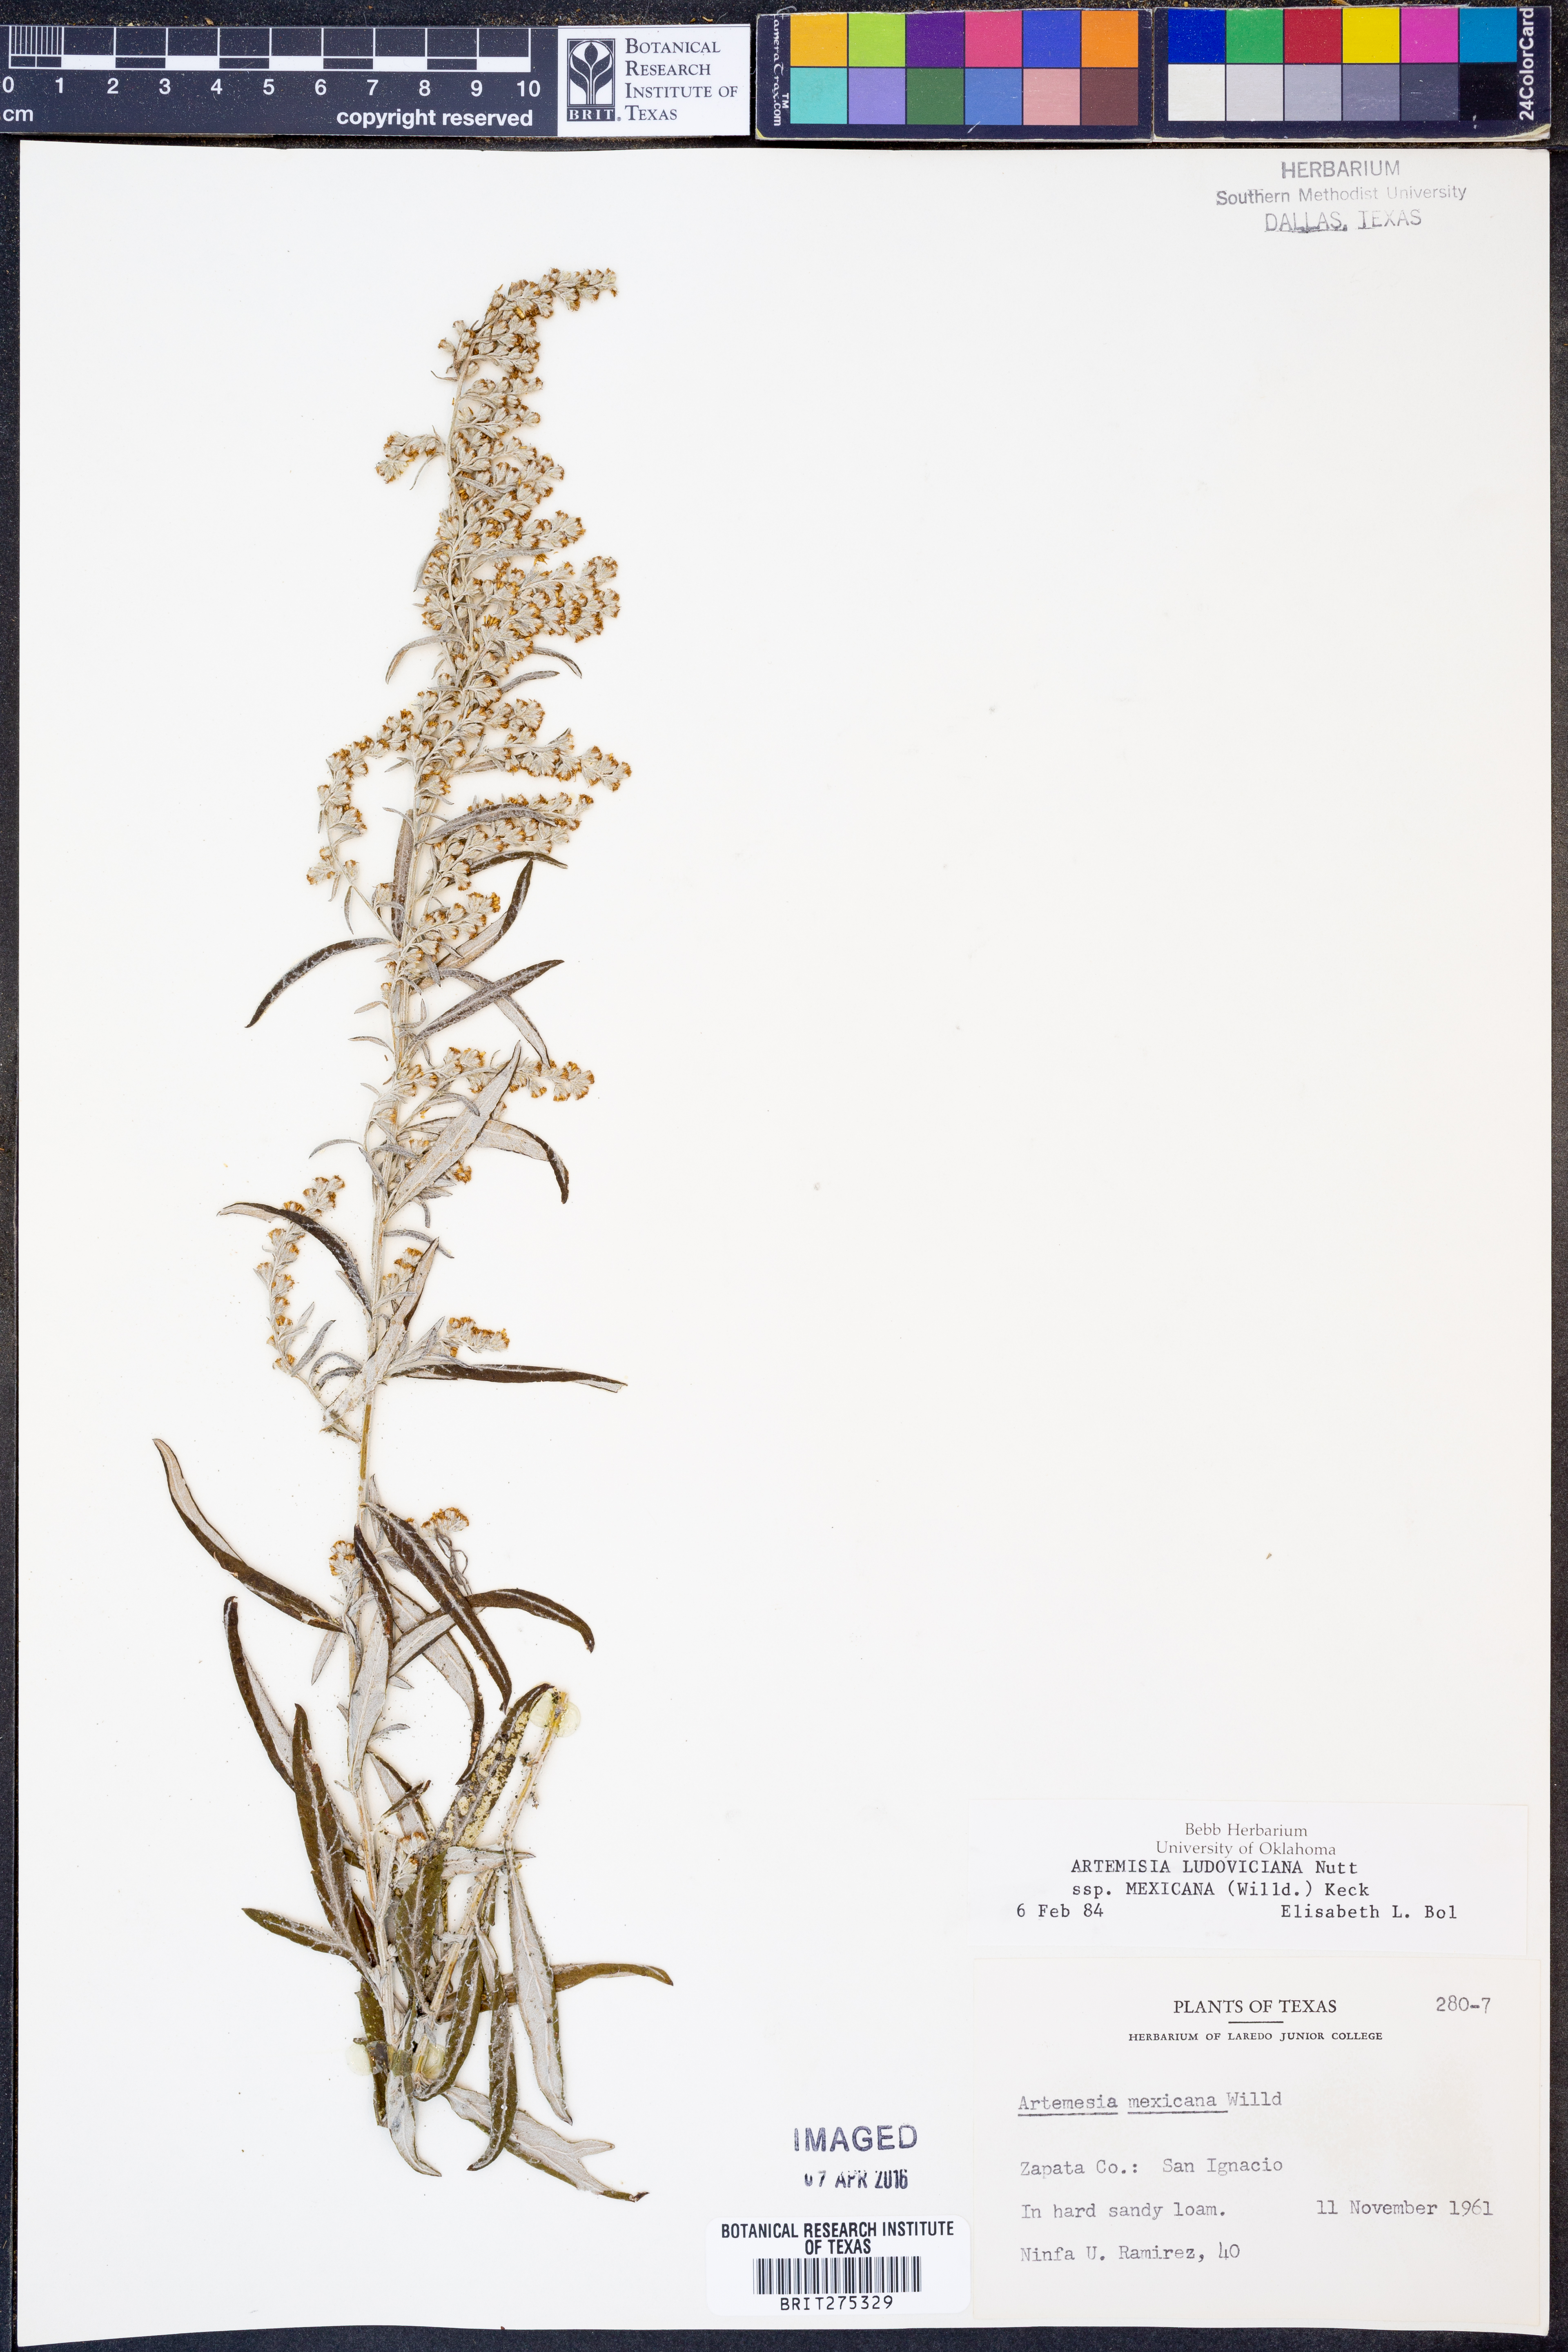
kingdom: Plantae
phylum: Tracheophyta
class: Magnoliopsida
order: Asterales
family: Asteraceae
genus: Artemisia
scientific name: Artemisia ludoviciana
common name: Western mugwort
